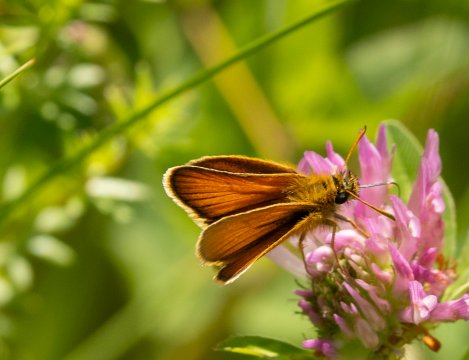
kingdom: Animalia
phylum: Arthropoda
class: Insecta
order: Lepidoptera
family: Hesperiidae
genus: Thymelicus
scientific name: Thymelicus lineola
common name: European Skipper
